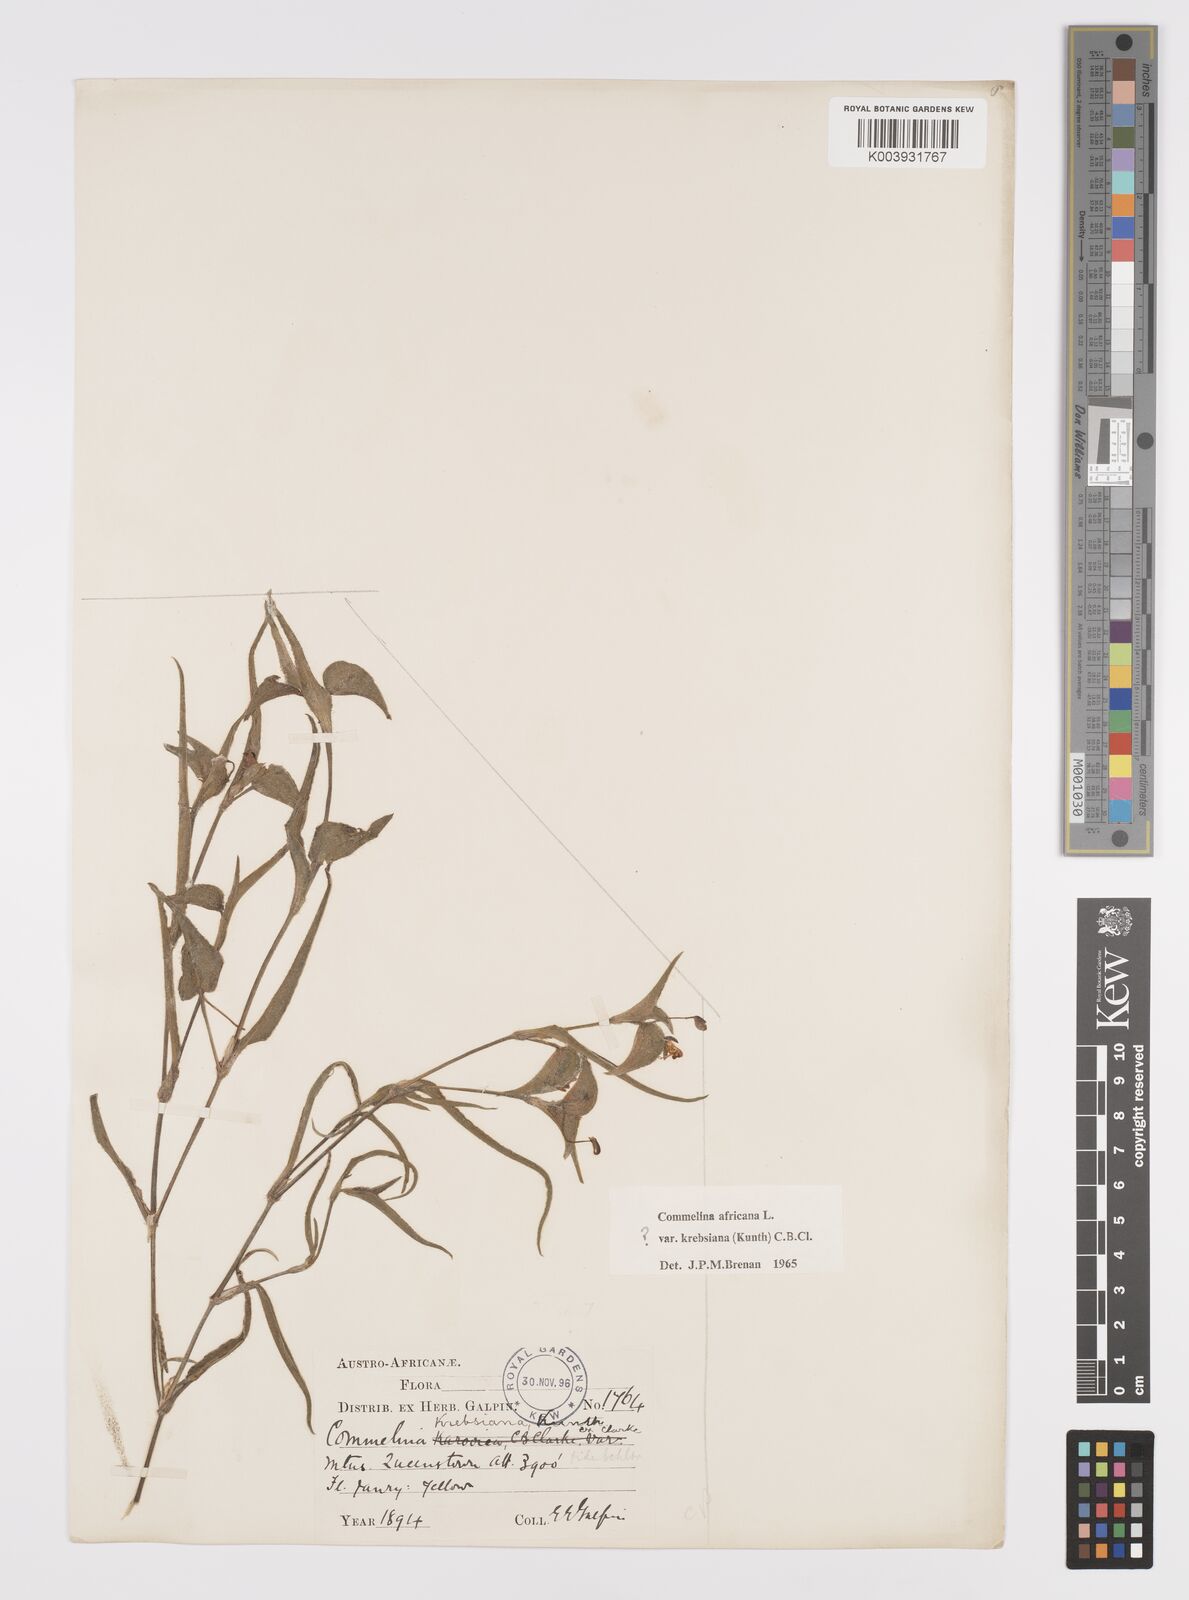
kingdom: Plantae
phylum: Tracheophyta
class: Liliopsida
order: Commelinales
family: Commelinaceae
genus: Commelina
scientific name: Commelina africana
